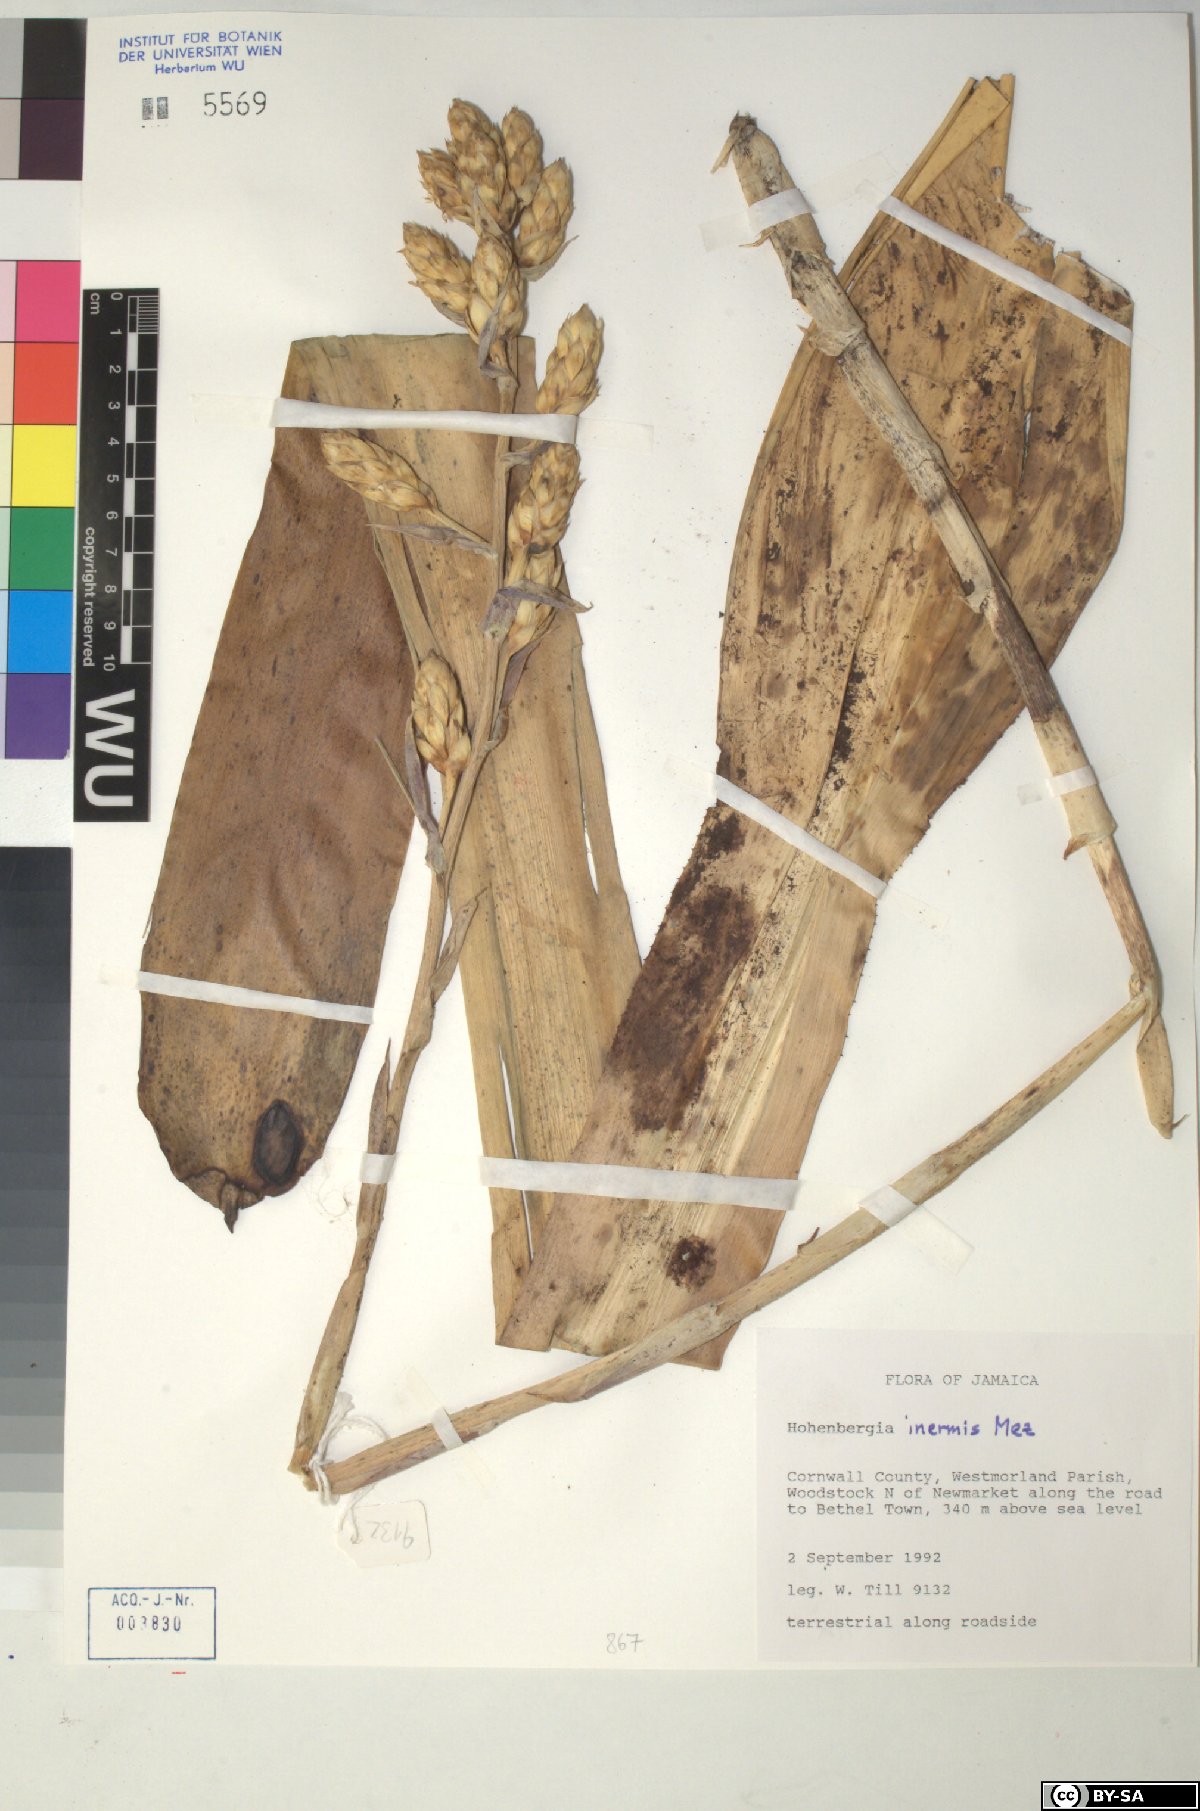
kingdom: Plantae
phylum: Tracheophyta
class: Liliopsida
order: Poales
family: Bromeliaceae
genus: Wittmackia
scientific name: Wittmackia inermis
